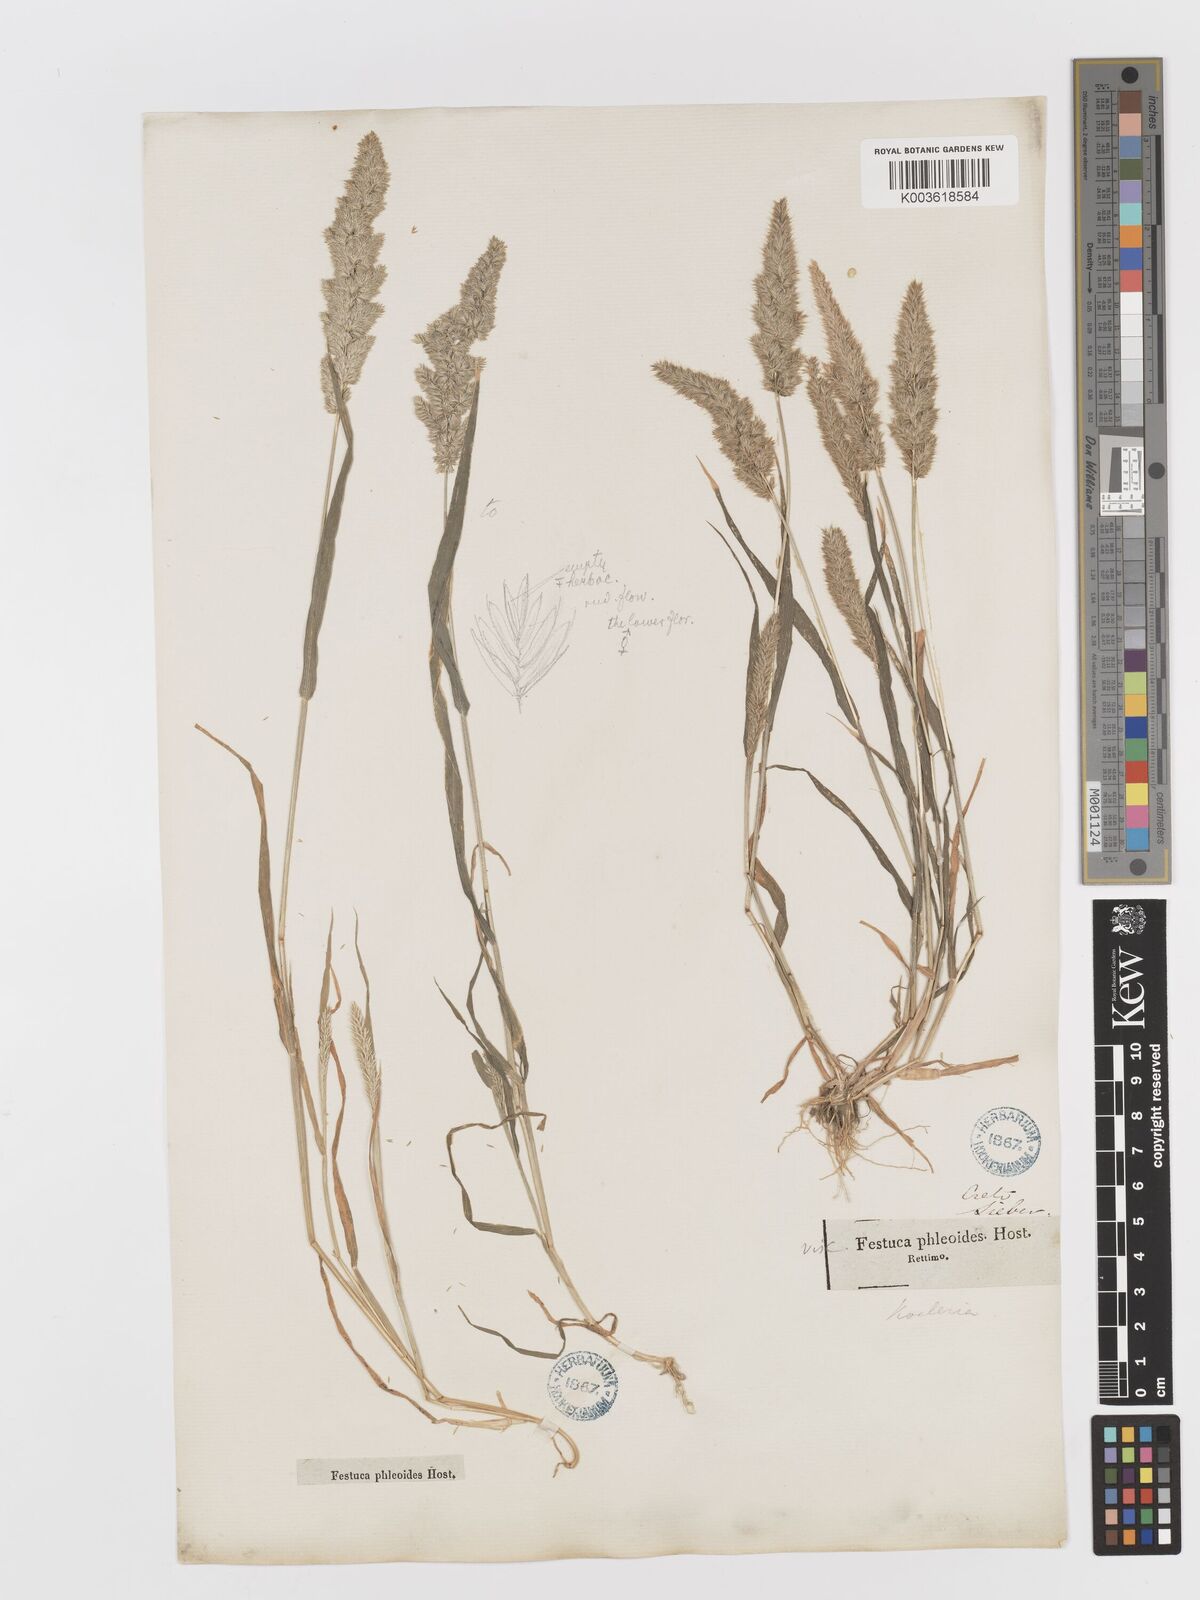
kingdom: Plantae
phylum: Tracheophyta
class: Liliopsida
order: Poales
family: Poaceae
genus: Rostraria
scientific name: Rostraria cristata
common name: Mediterranean hair-grass
